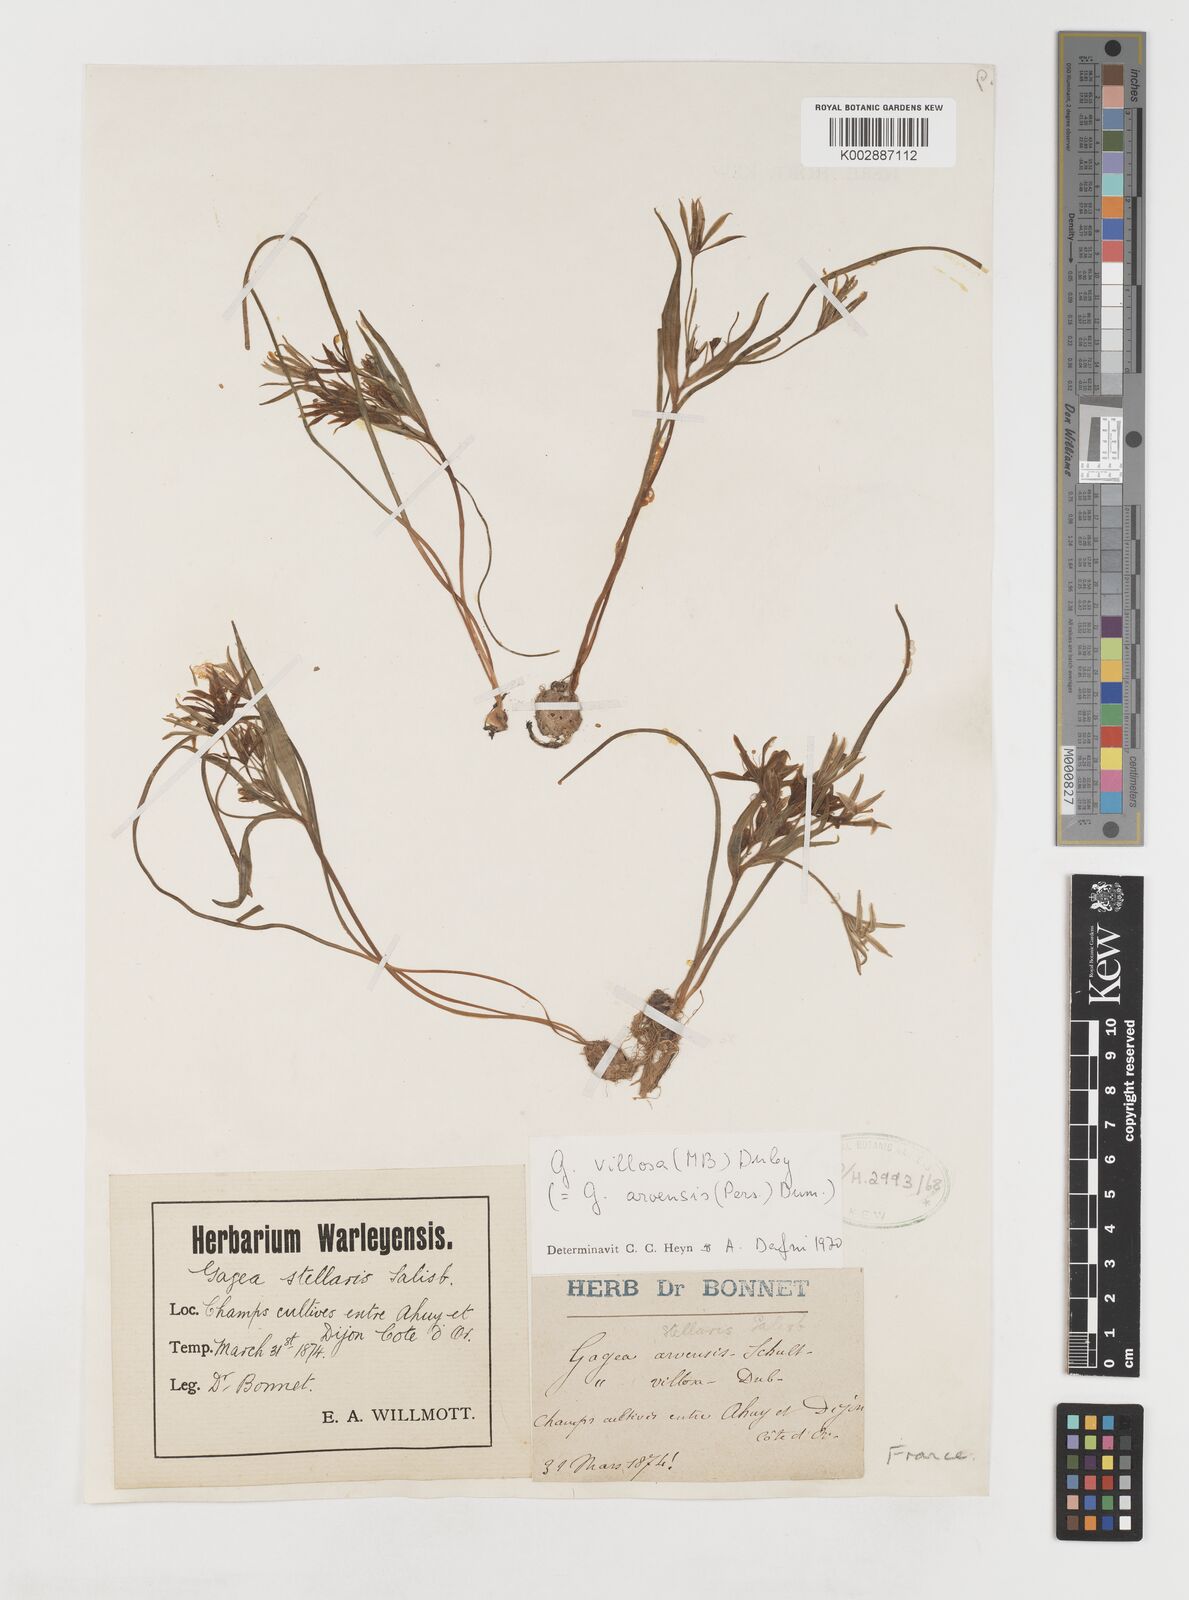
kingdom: Plantae
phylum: Tracheophyta
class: Liliopsida
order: Liliales
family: Liliaceae
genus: Gagea
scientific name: Gagea villosa
